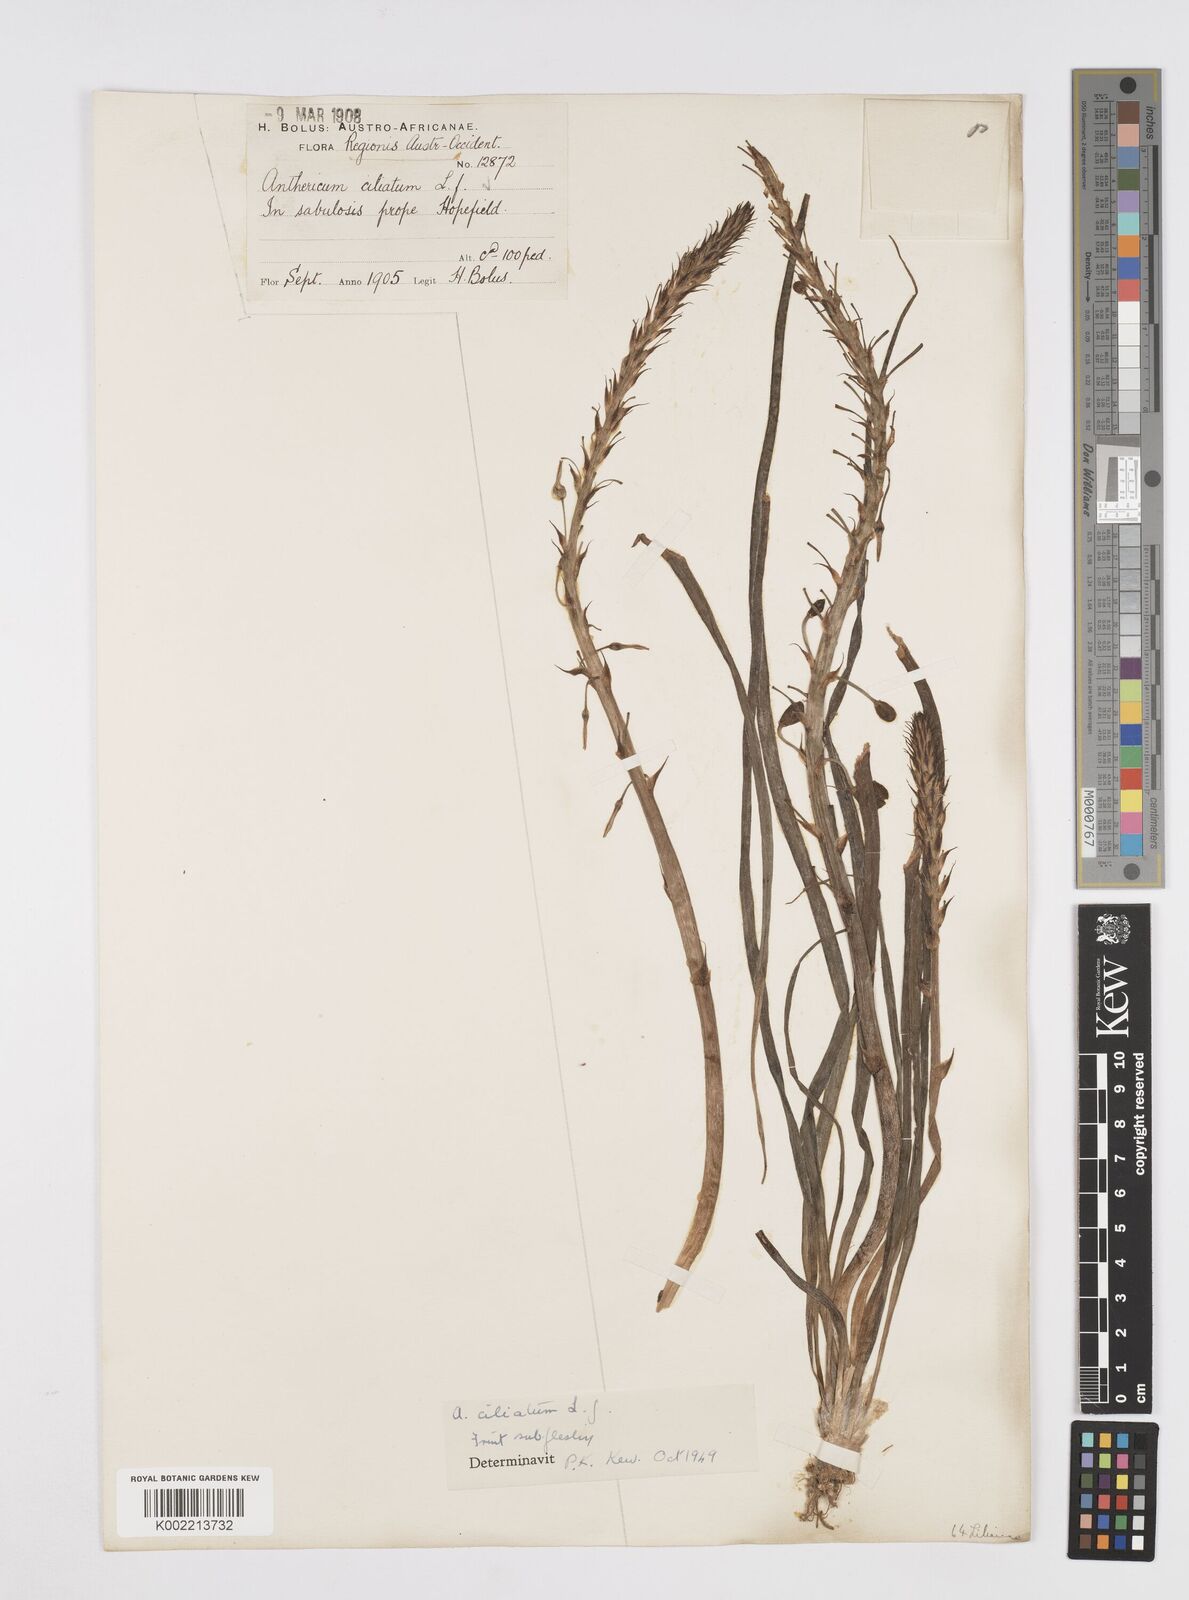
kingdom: Plantae
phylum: Tracheophyta
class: Liliopsida
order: Asparagales
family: Asphodelaceae
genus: Trachyandra
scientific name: Trachyandra ciliata
